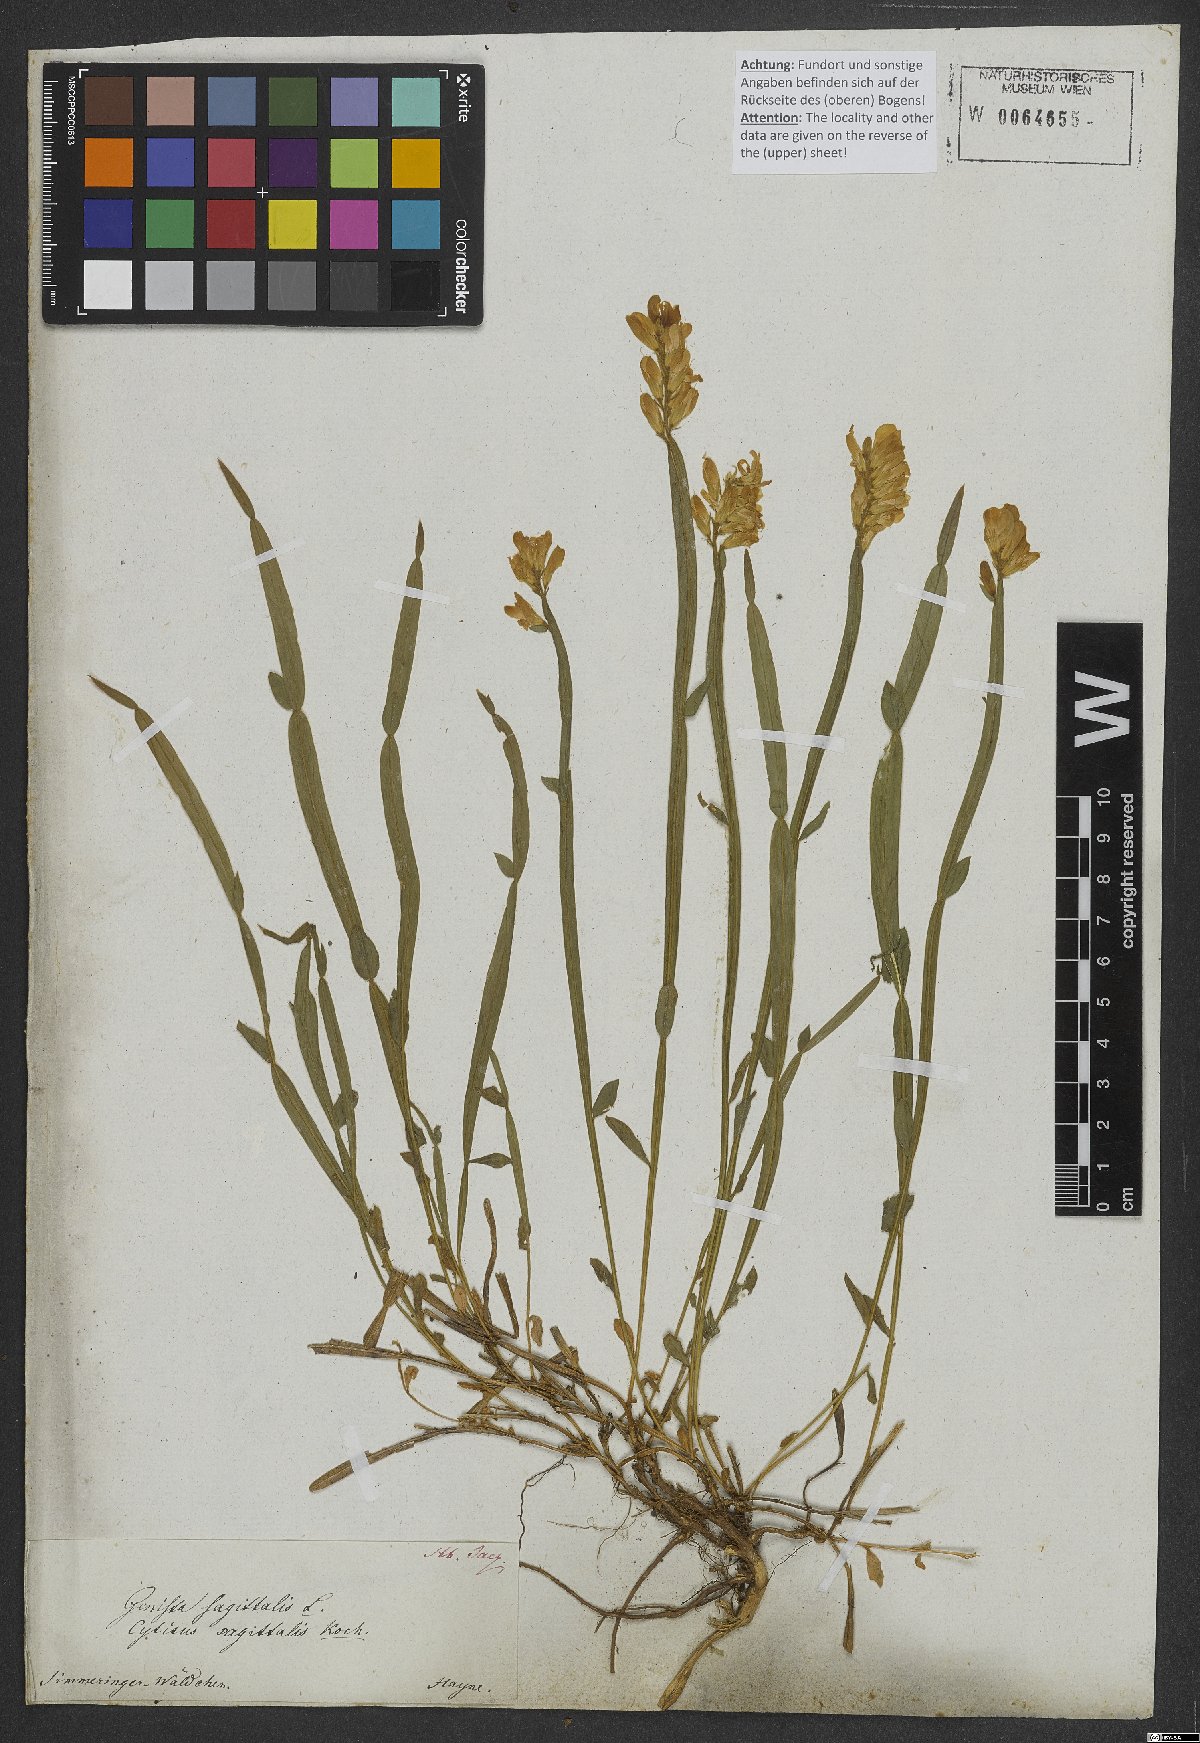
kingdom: Plantae
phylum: Tracheophyta
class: Magnoliopsida
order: Fabales
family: Fabaceae
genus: Genista
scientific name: Genista sagittalis
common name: Winged greenweed
